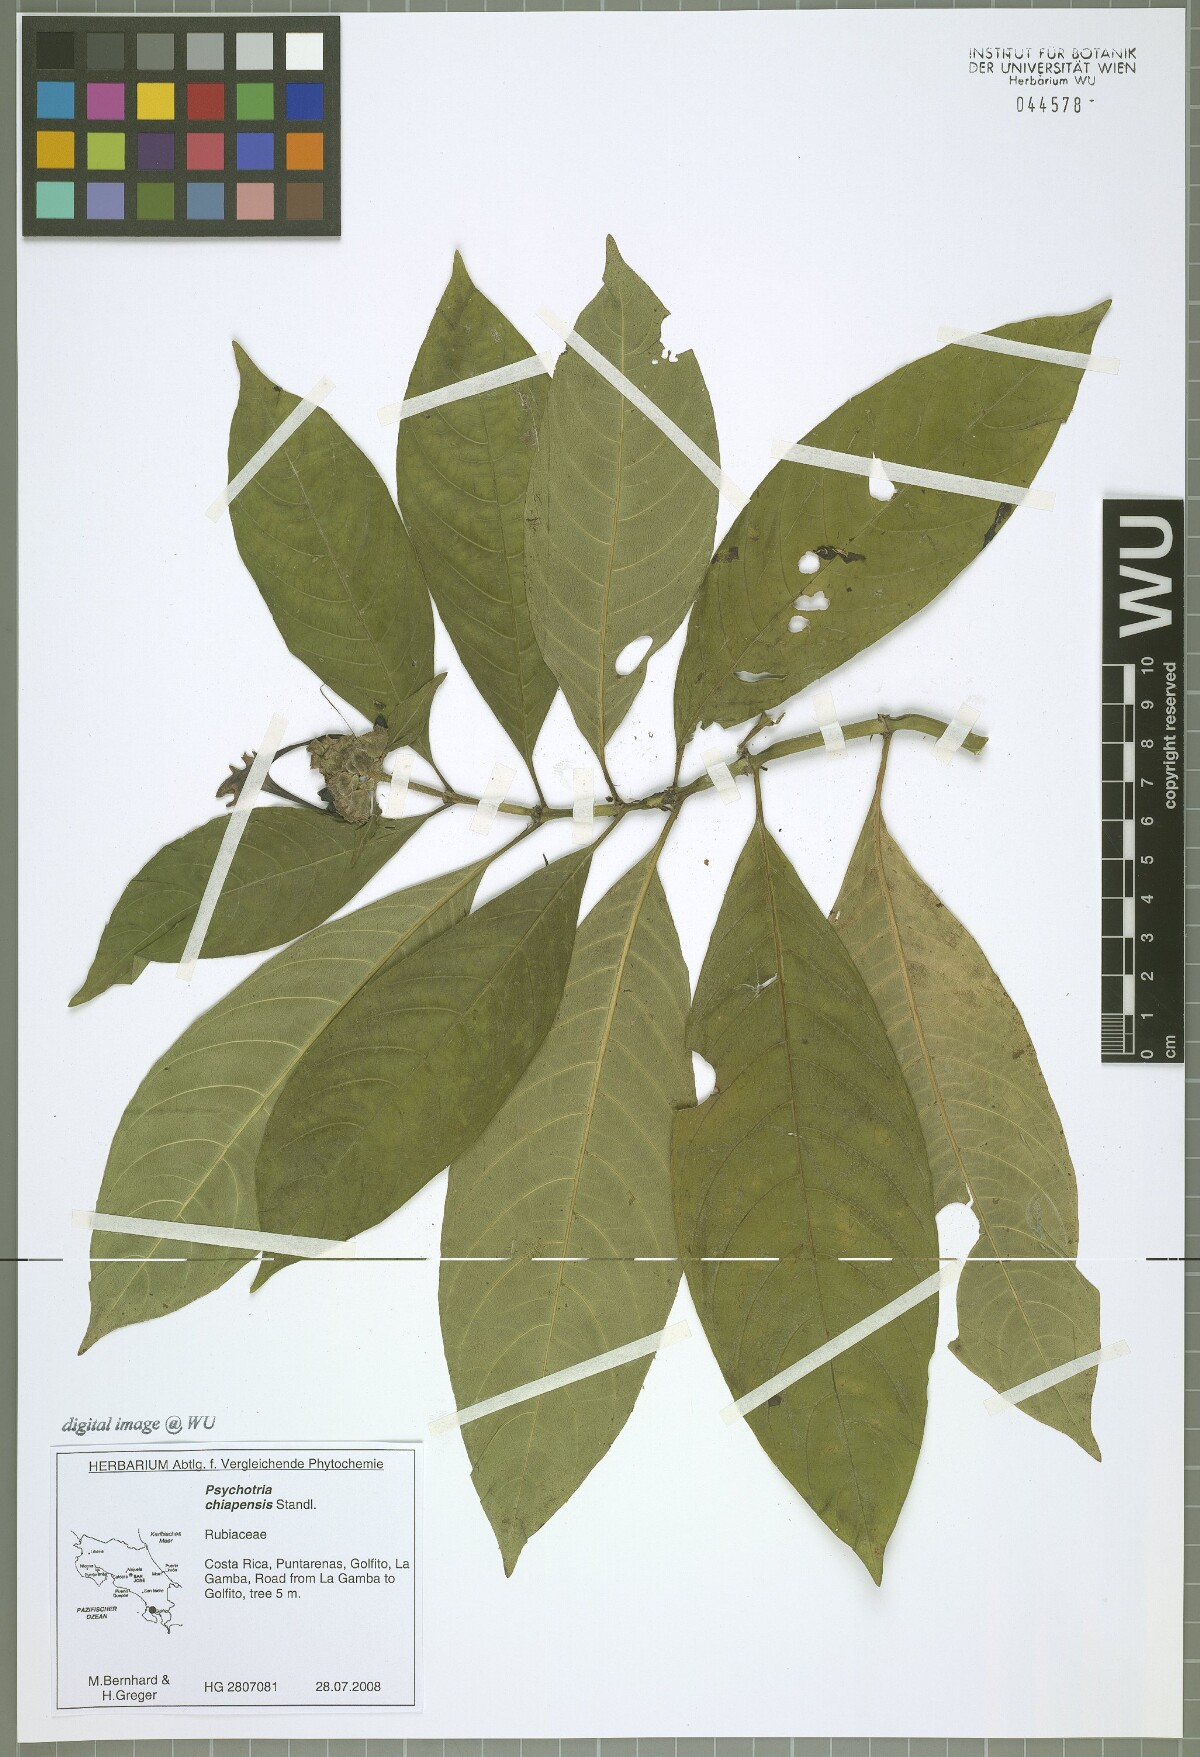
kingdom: Plantae
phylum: Tracheophyta
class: Magnoliopsida
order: Gentianales
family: Rubiaceae
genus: Palicourea
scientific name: Palicourea tetragona
